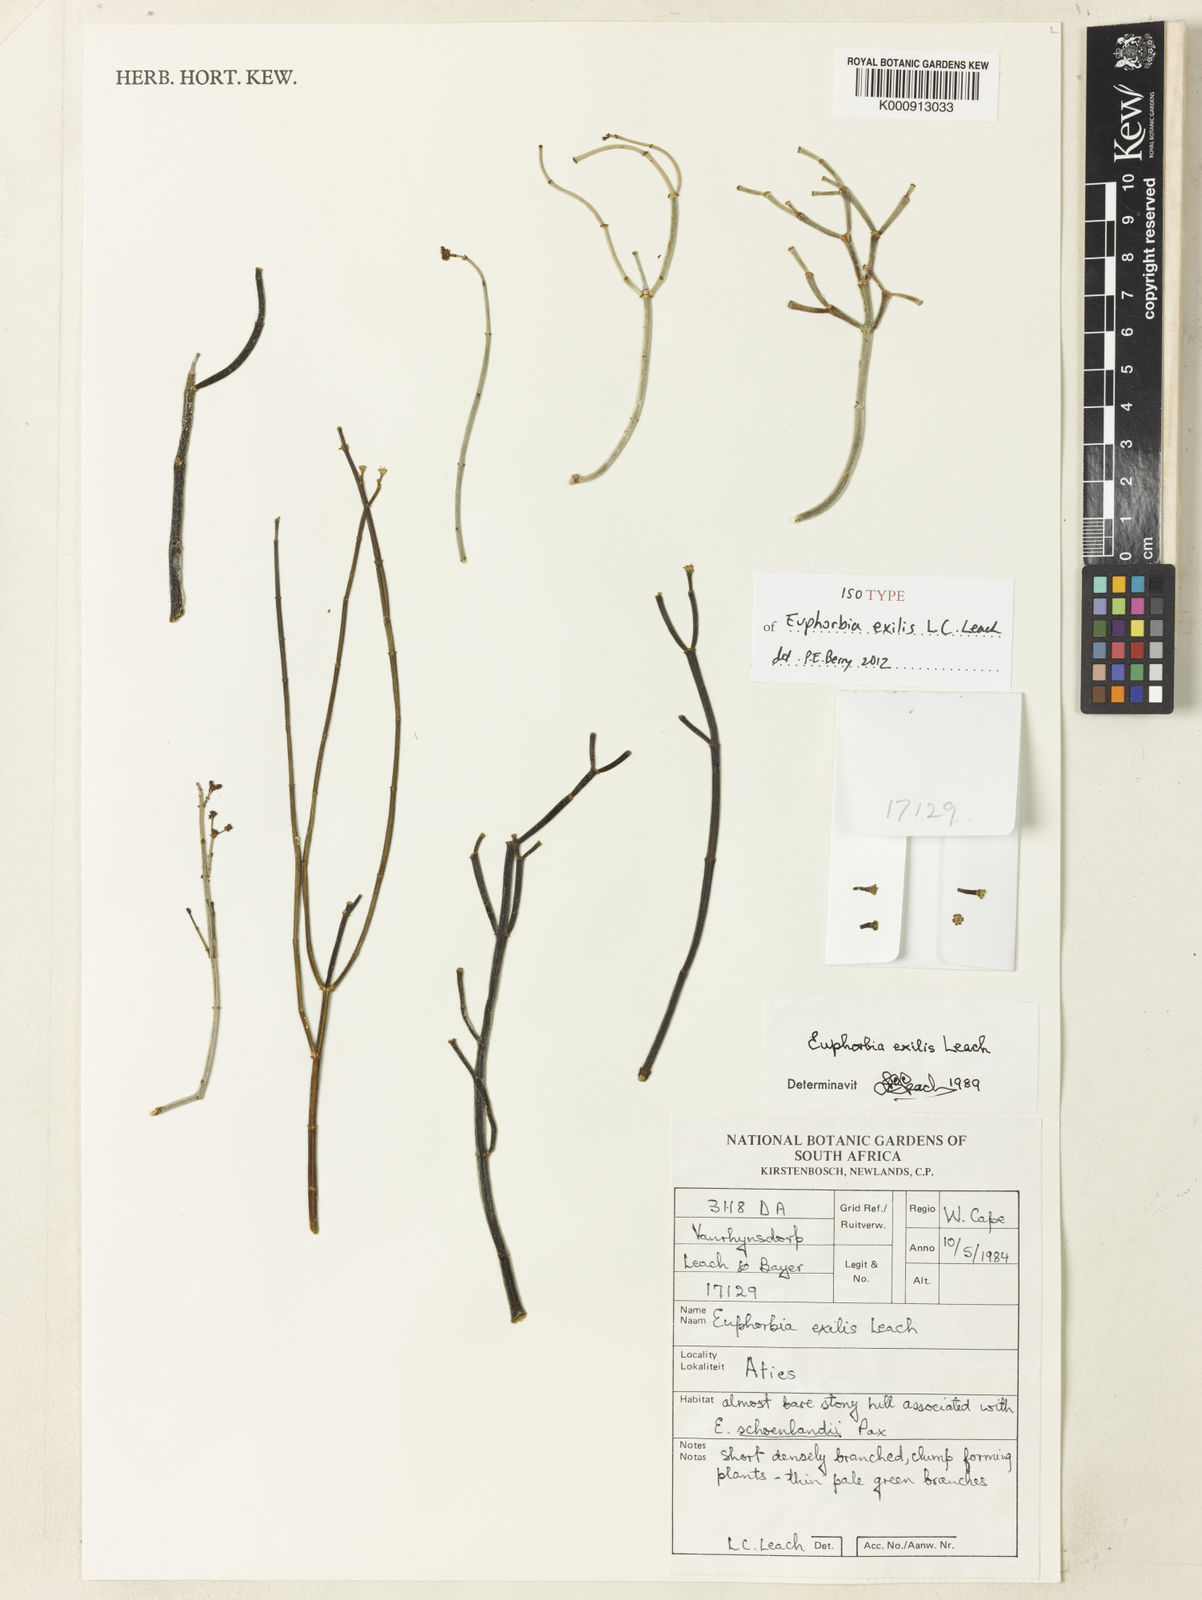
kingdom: Plantae
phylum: Tracheophyta
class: Magnoliopsida
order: Malpighiales
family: Euphorbiaceae
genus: Euphorbia
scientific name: Euphorbia exilis
